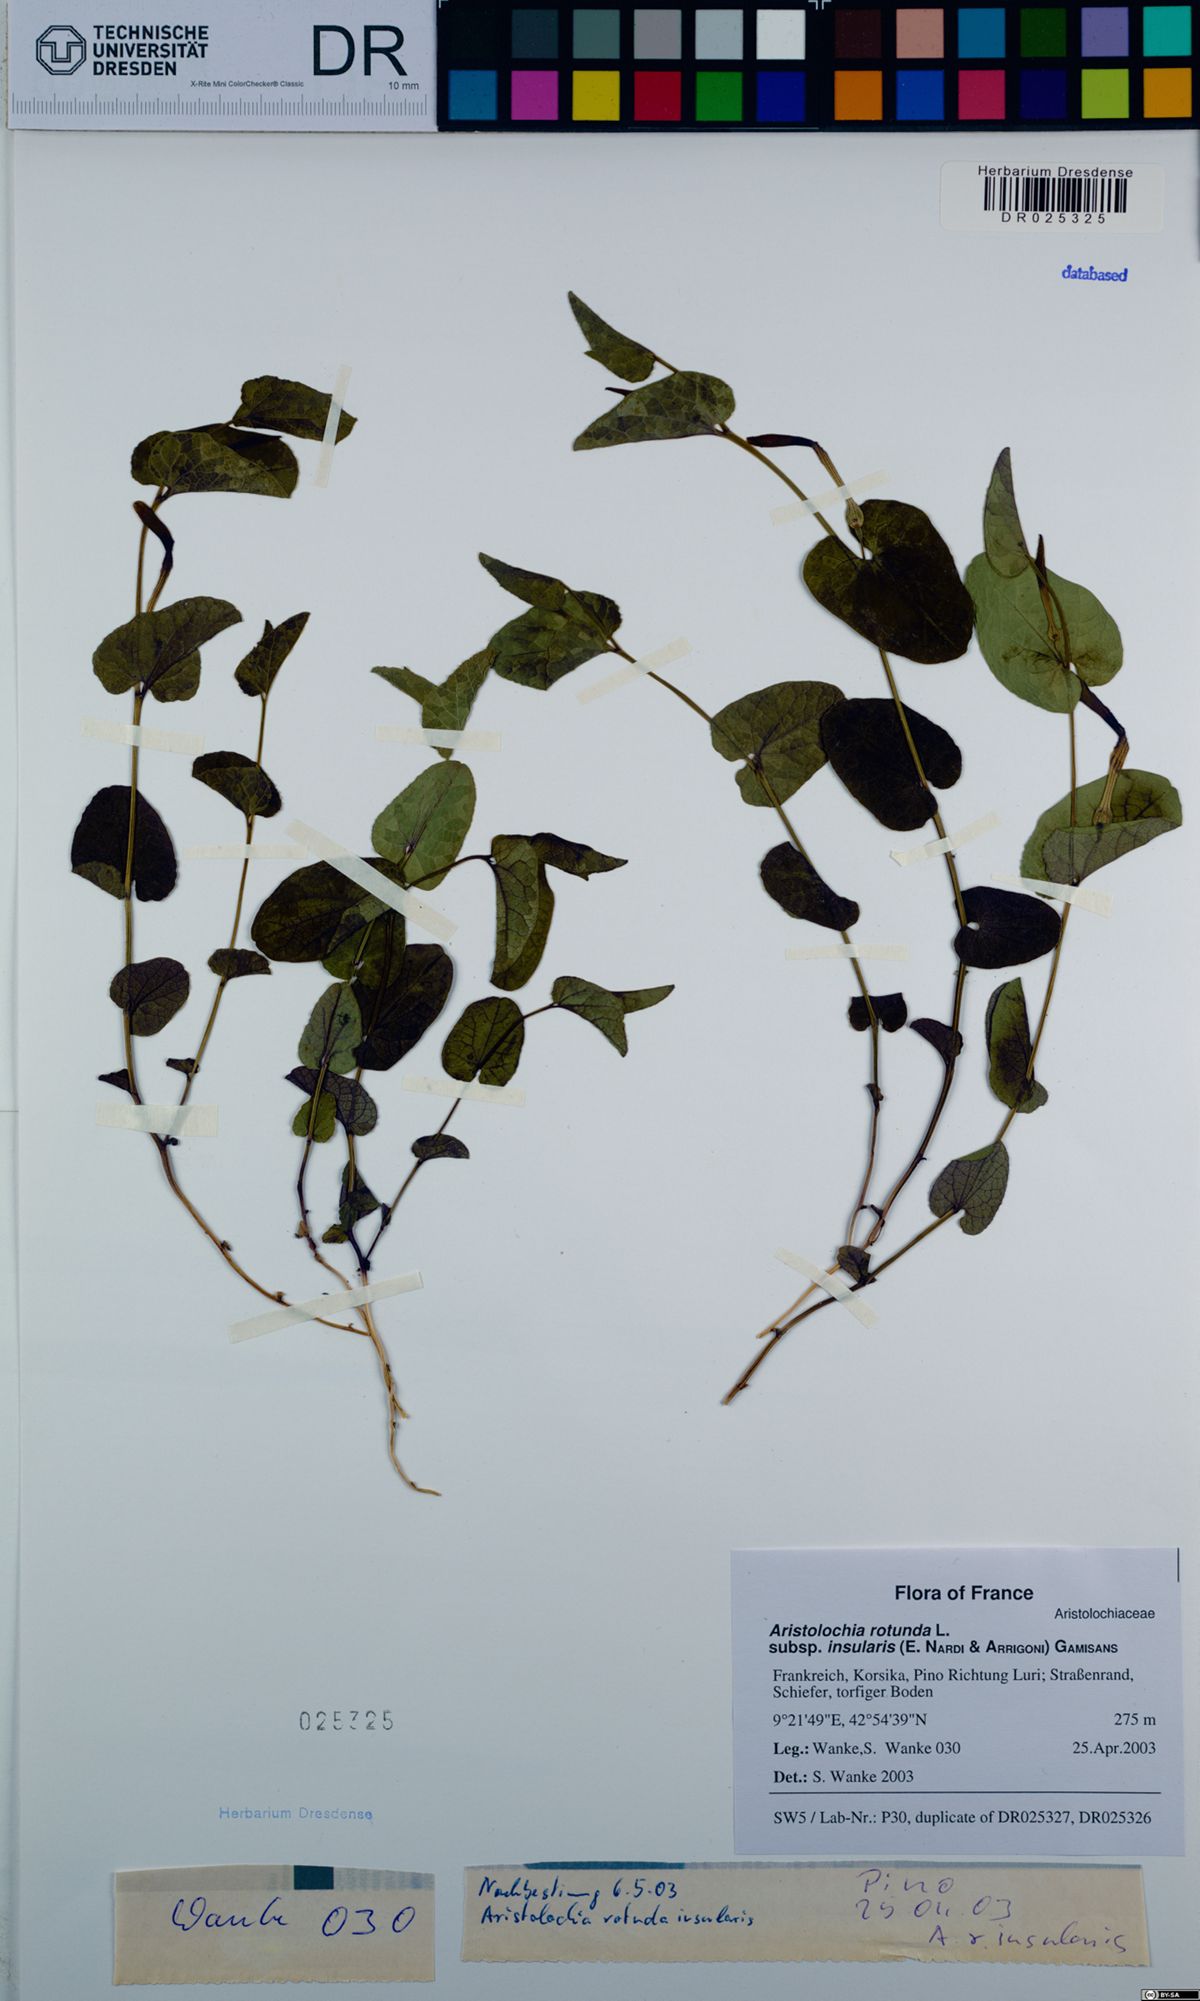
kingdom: Plantae
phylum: Tracheophyta
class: Magnoliopsida
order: Piperales
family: Aristolochiaceae
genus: Aristolochia
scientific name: Aristolochia rotunda
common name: Smearwort
